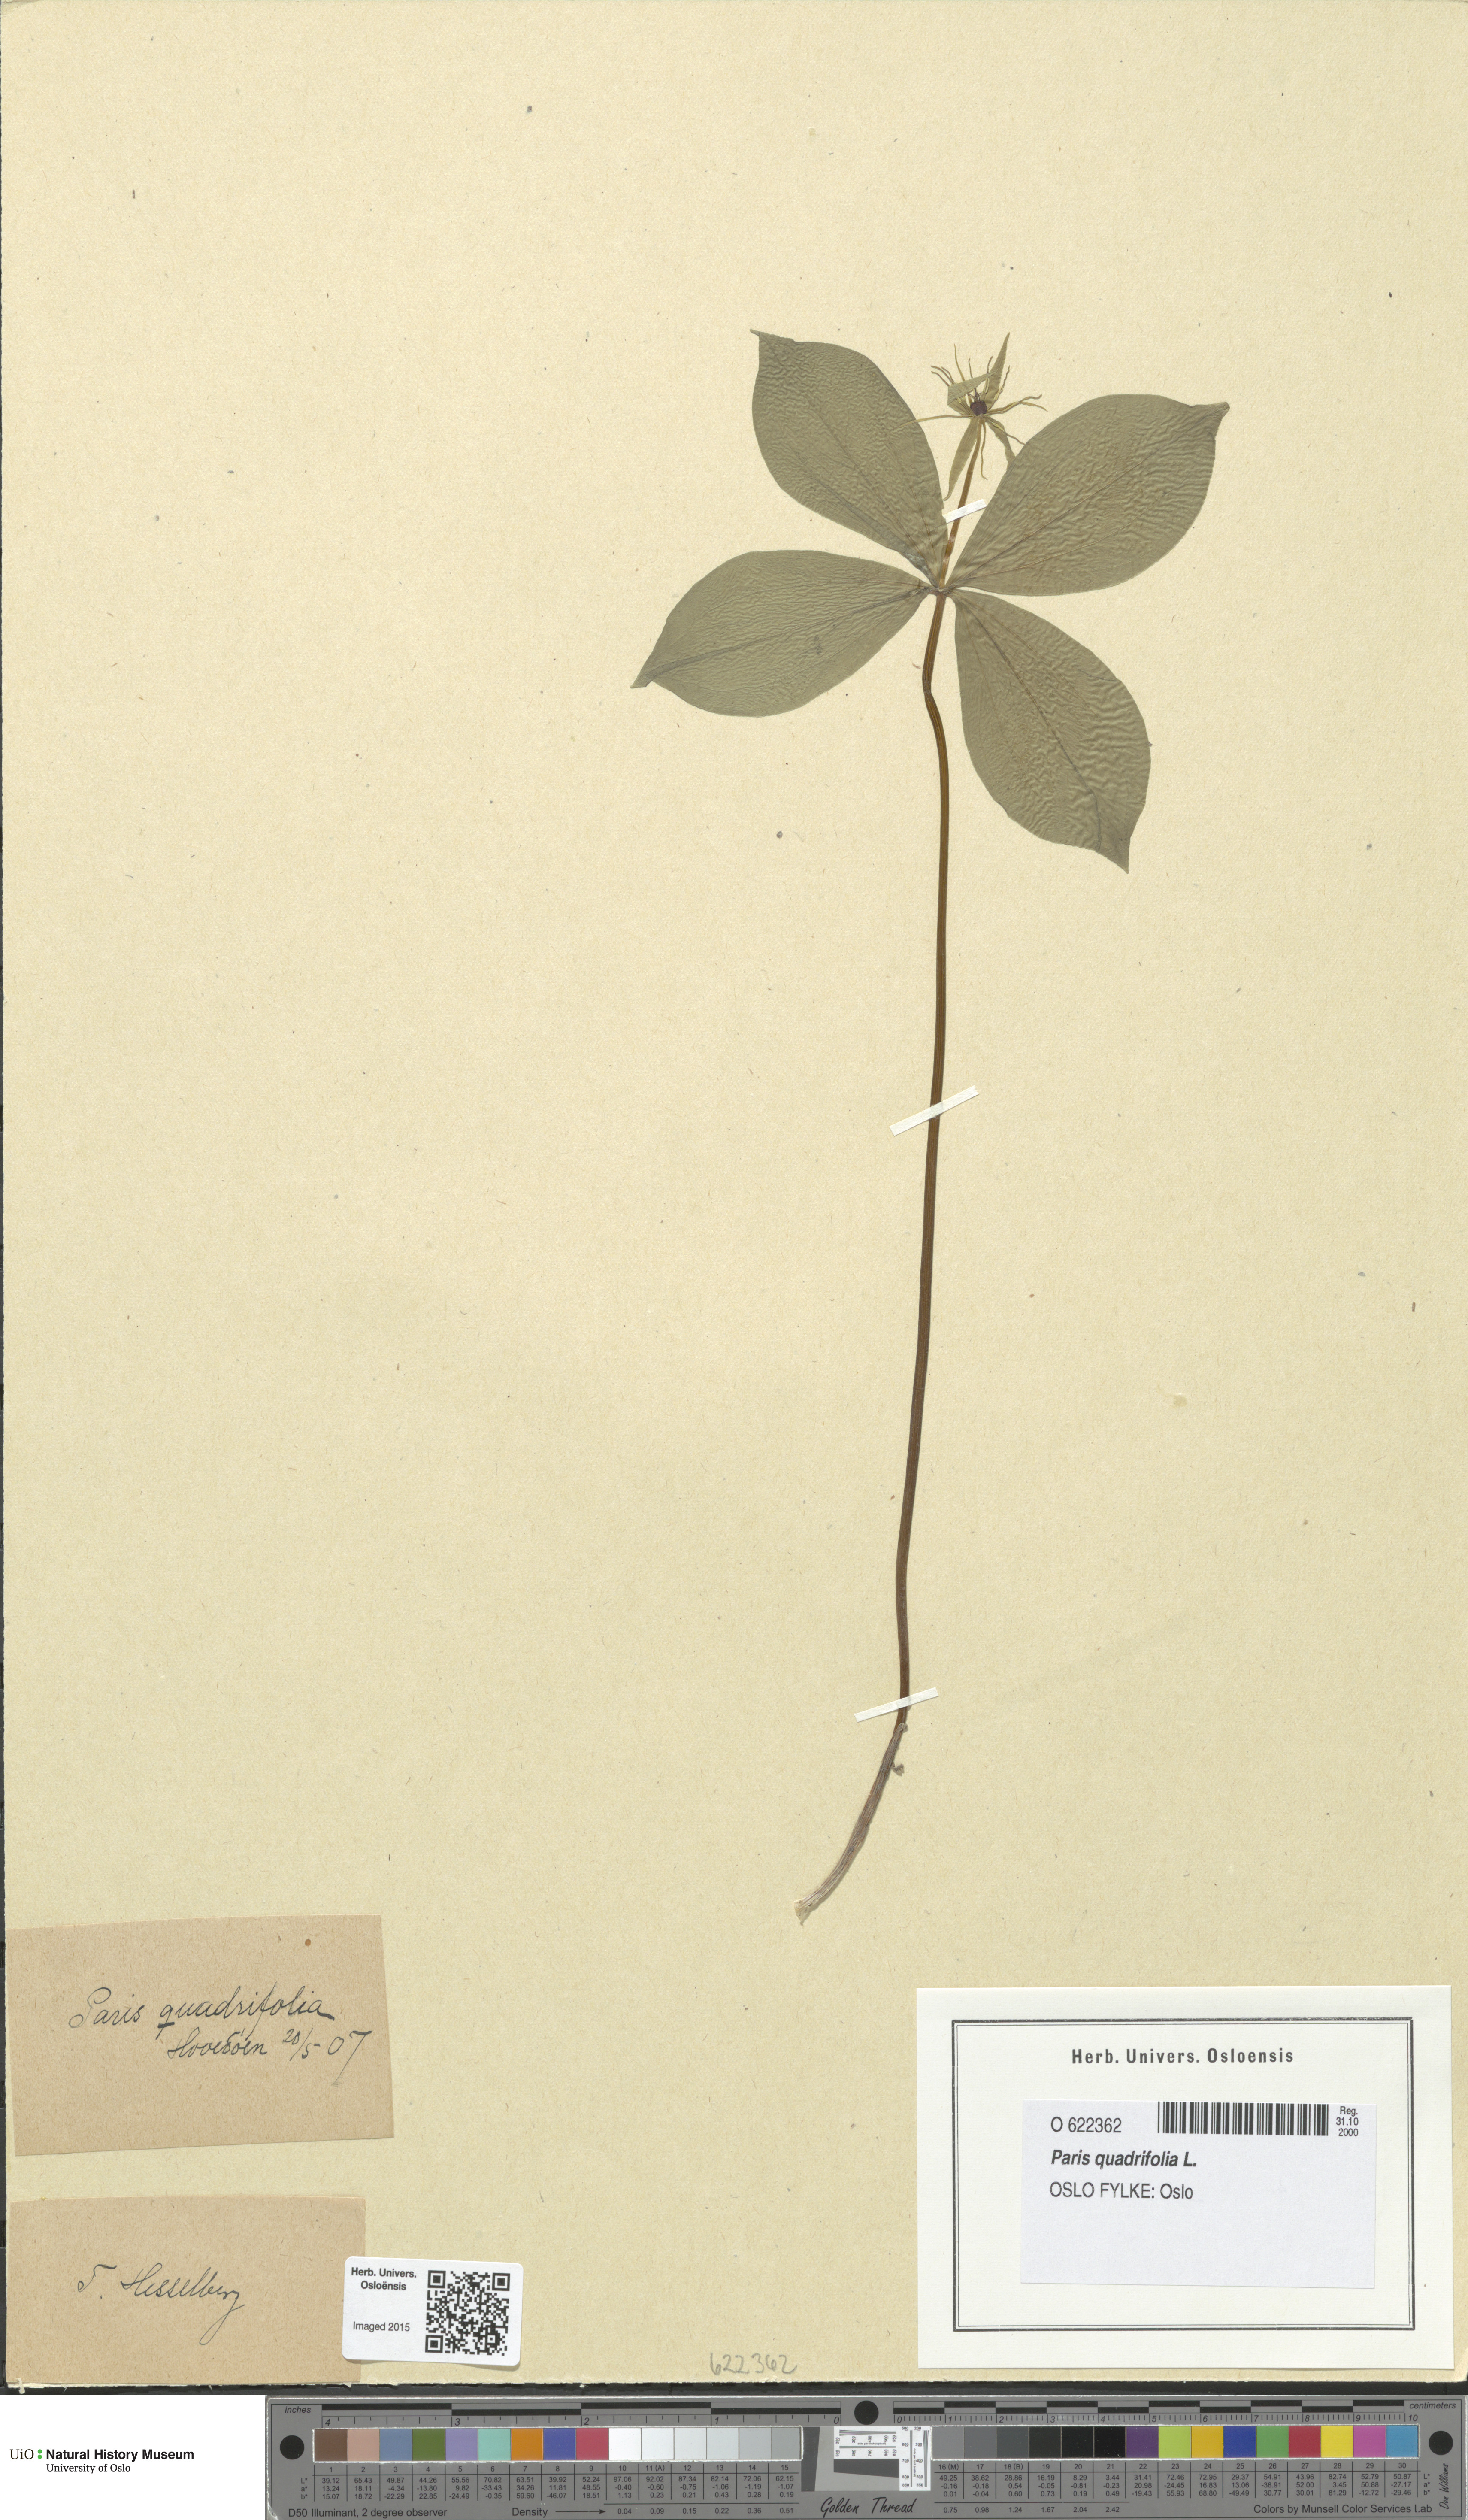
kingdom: Plantae
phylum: Tracheophyta
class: Liliopsida
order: Liliales
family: Melanthiaceae
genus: Paris
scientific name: Paris quadrifolia
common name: Herb-paris
